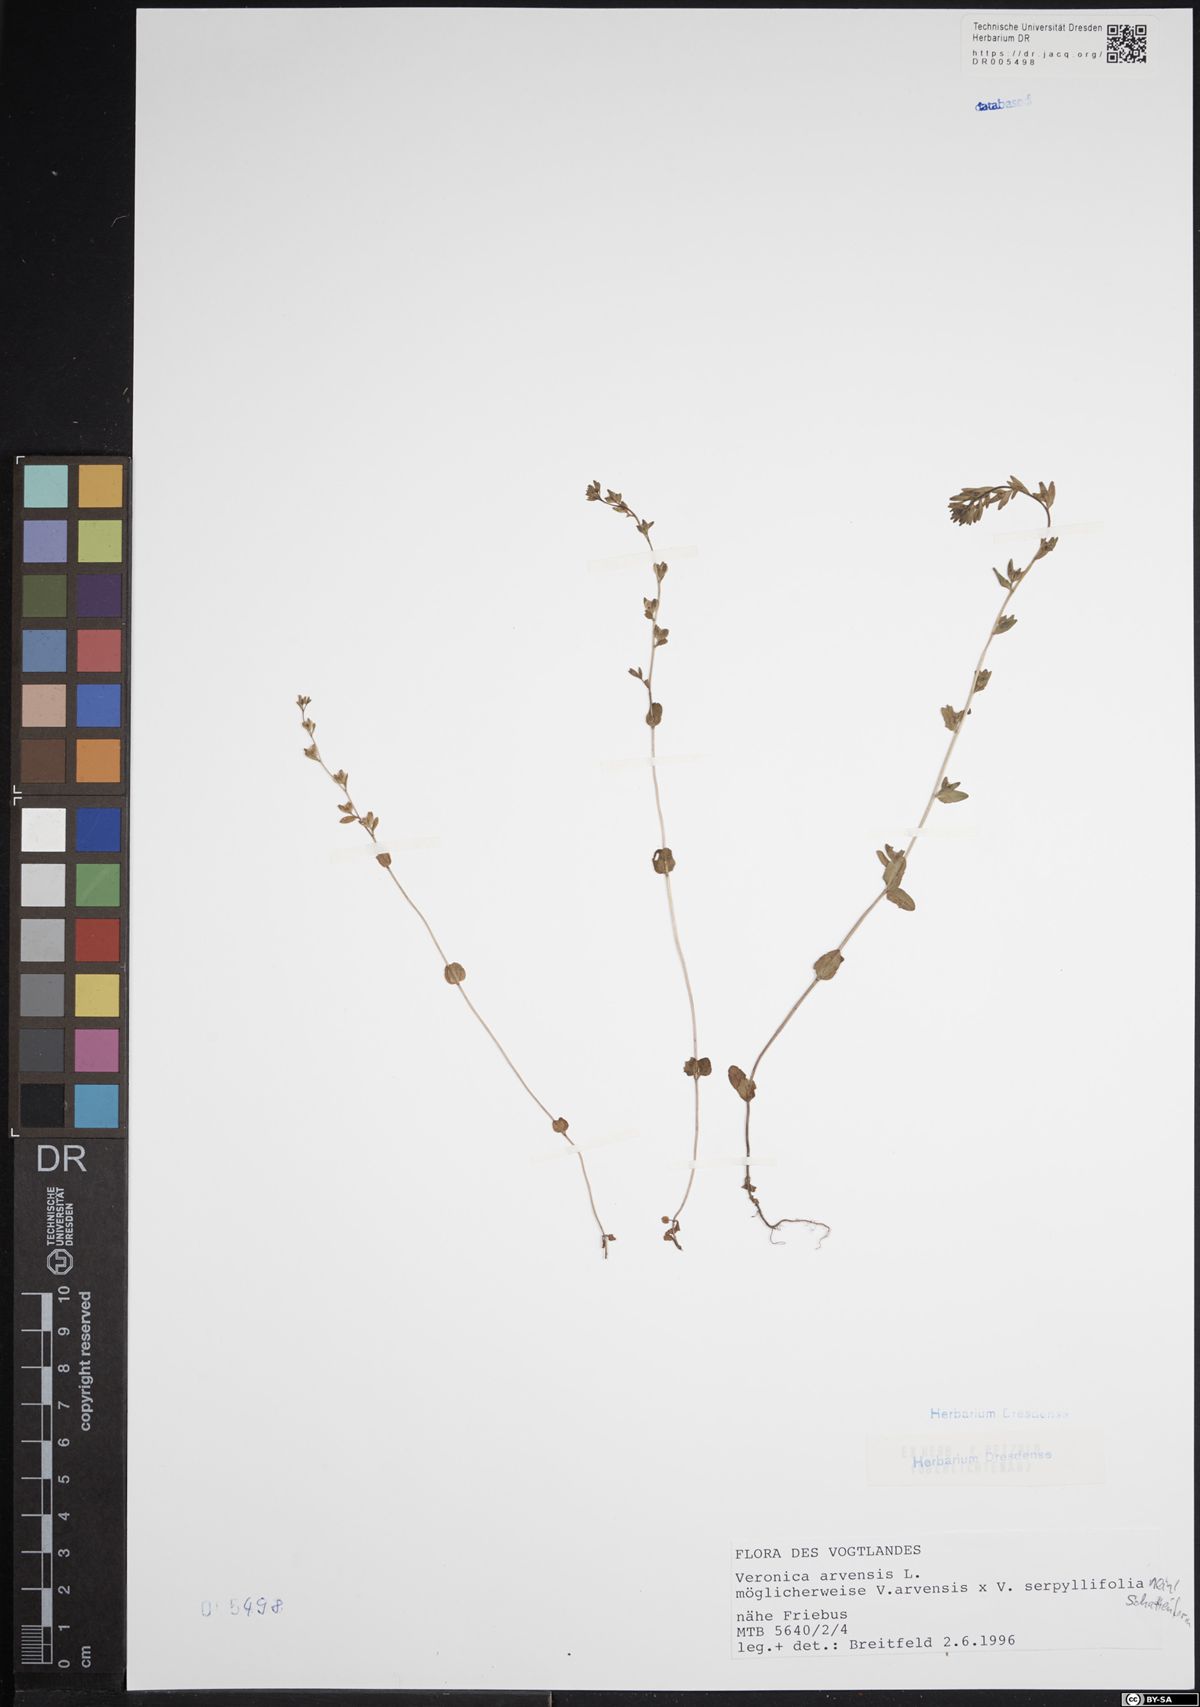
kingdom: Plantae
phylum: Tracheophyta
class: Magnoliopsida
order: Lamiales
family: Plantaginaceae
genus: Veronica
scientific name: Veronica arvensis
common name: Corn speedwell
